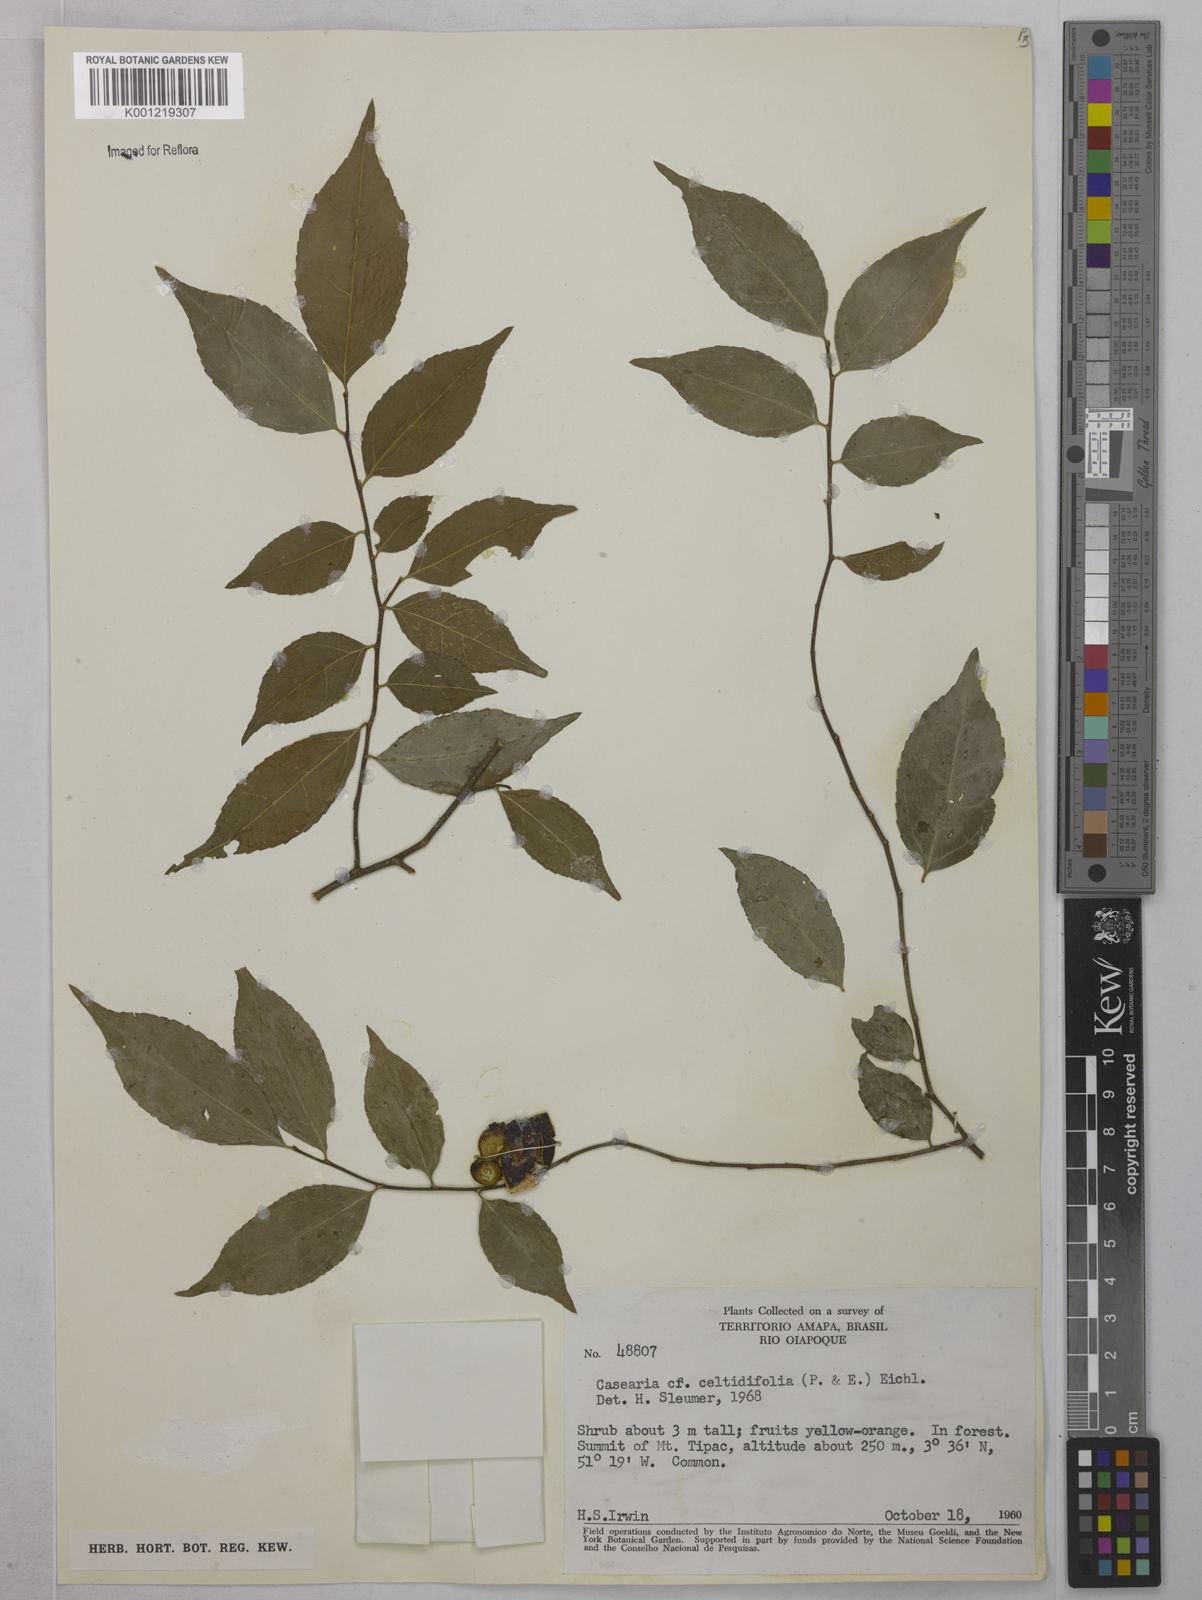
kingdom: Plantae
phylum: Tracheophyta
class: Magnoliopsida
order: Malpighiales
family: Salicaceae
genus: Casearia
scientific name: Casearia
